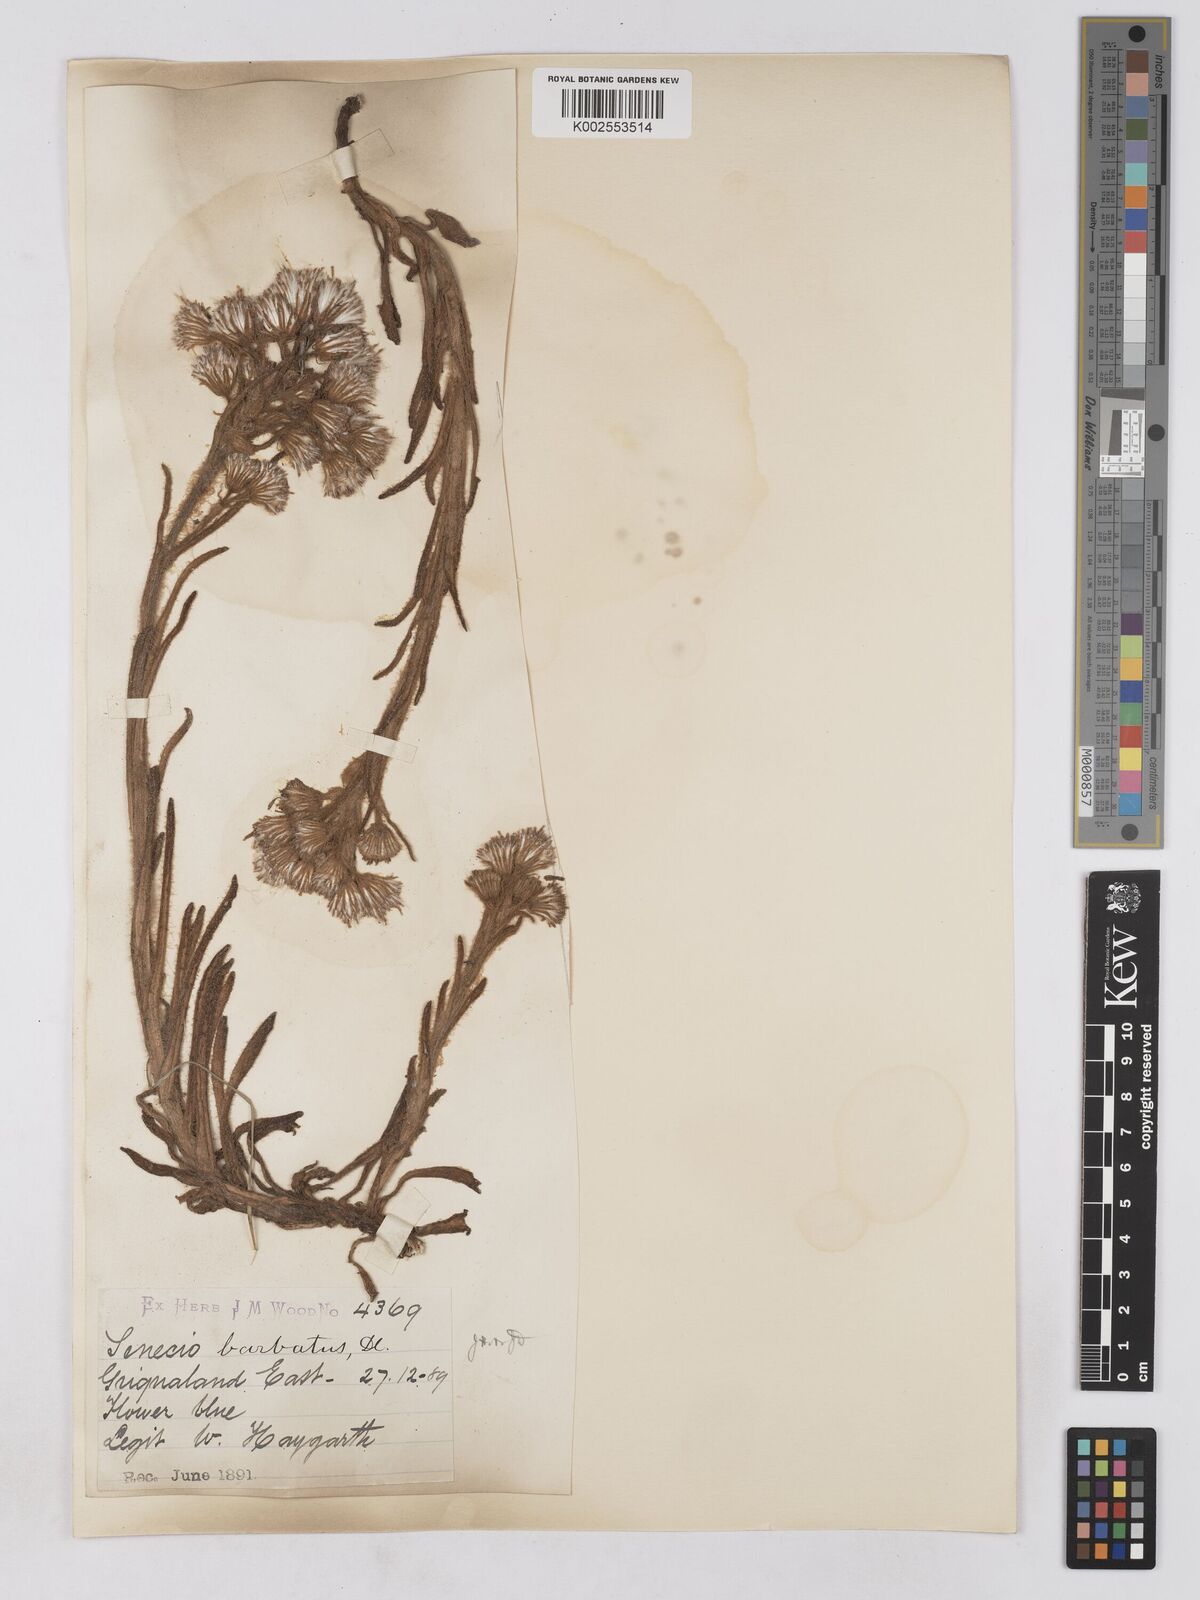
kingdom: Plantae
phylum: Tracheophyta
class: Magnoliopsida
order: Asterales
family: Asteraceae
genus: Senecio
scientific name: Senecio barbatus
